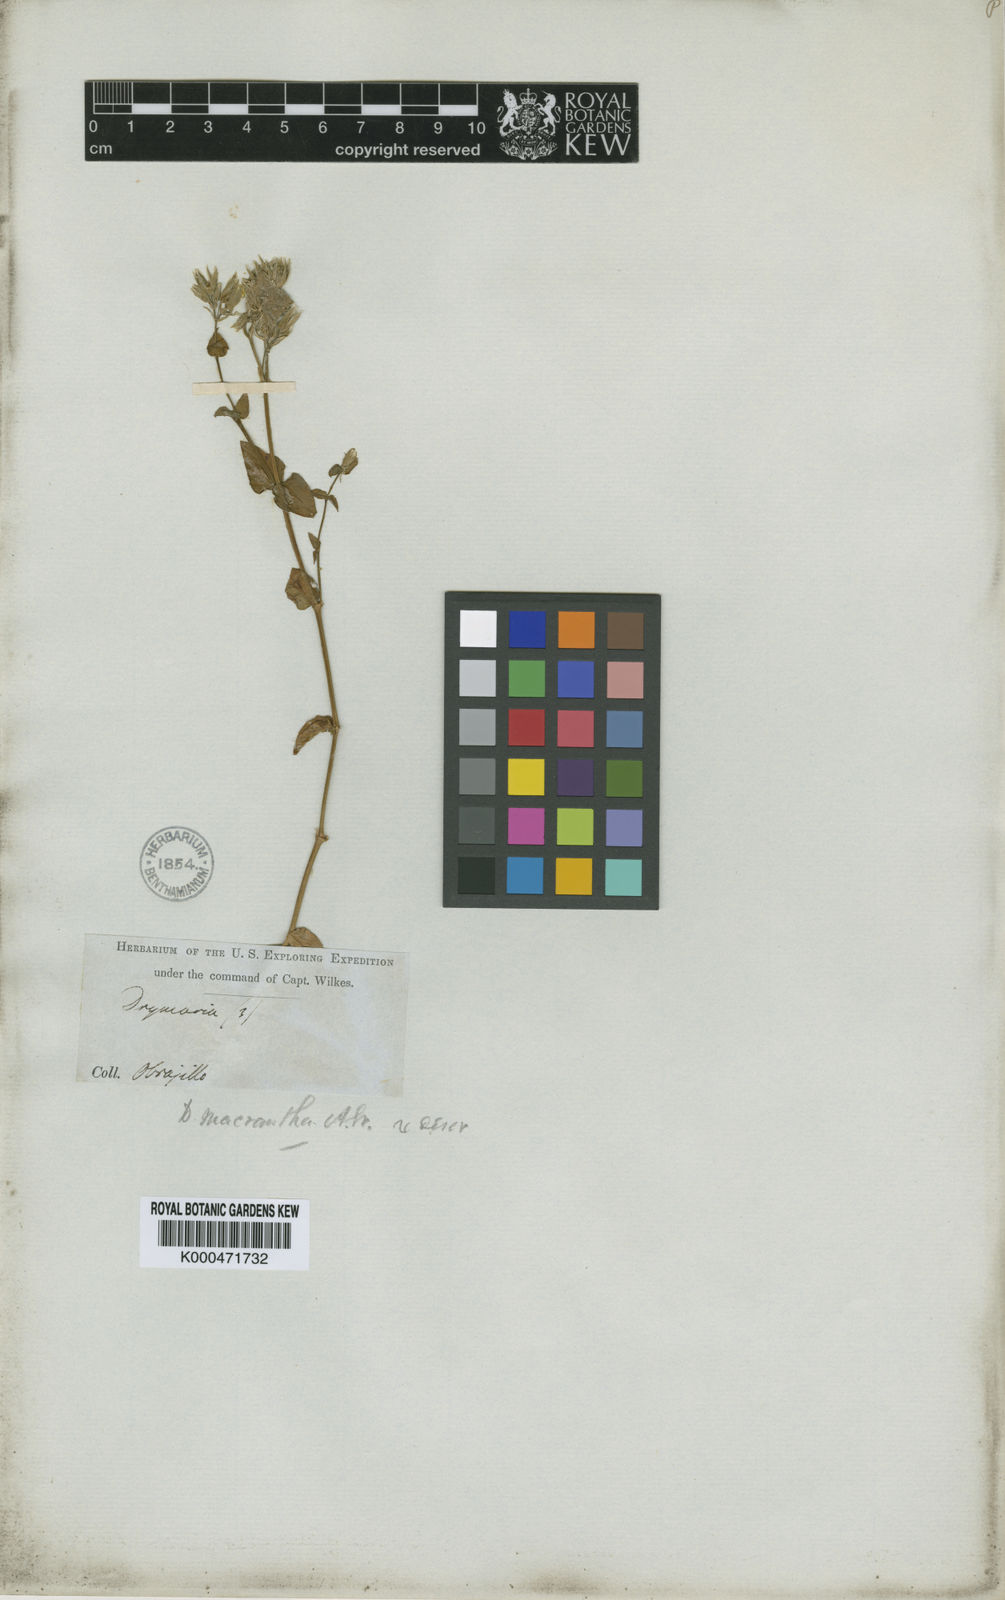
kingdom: Plantae
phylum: Tracheophyta
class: Magnoliopsida
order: Caryophyllales
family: Caryophyllaceae
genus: Drymaria
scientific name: Drymaria apetala
